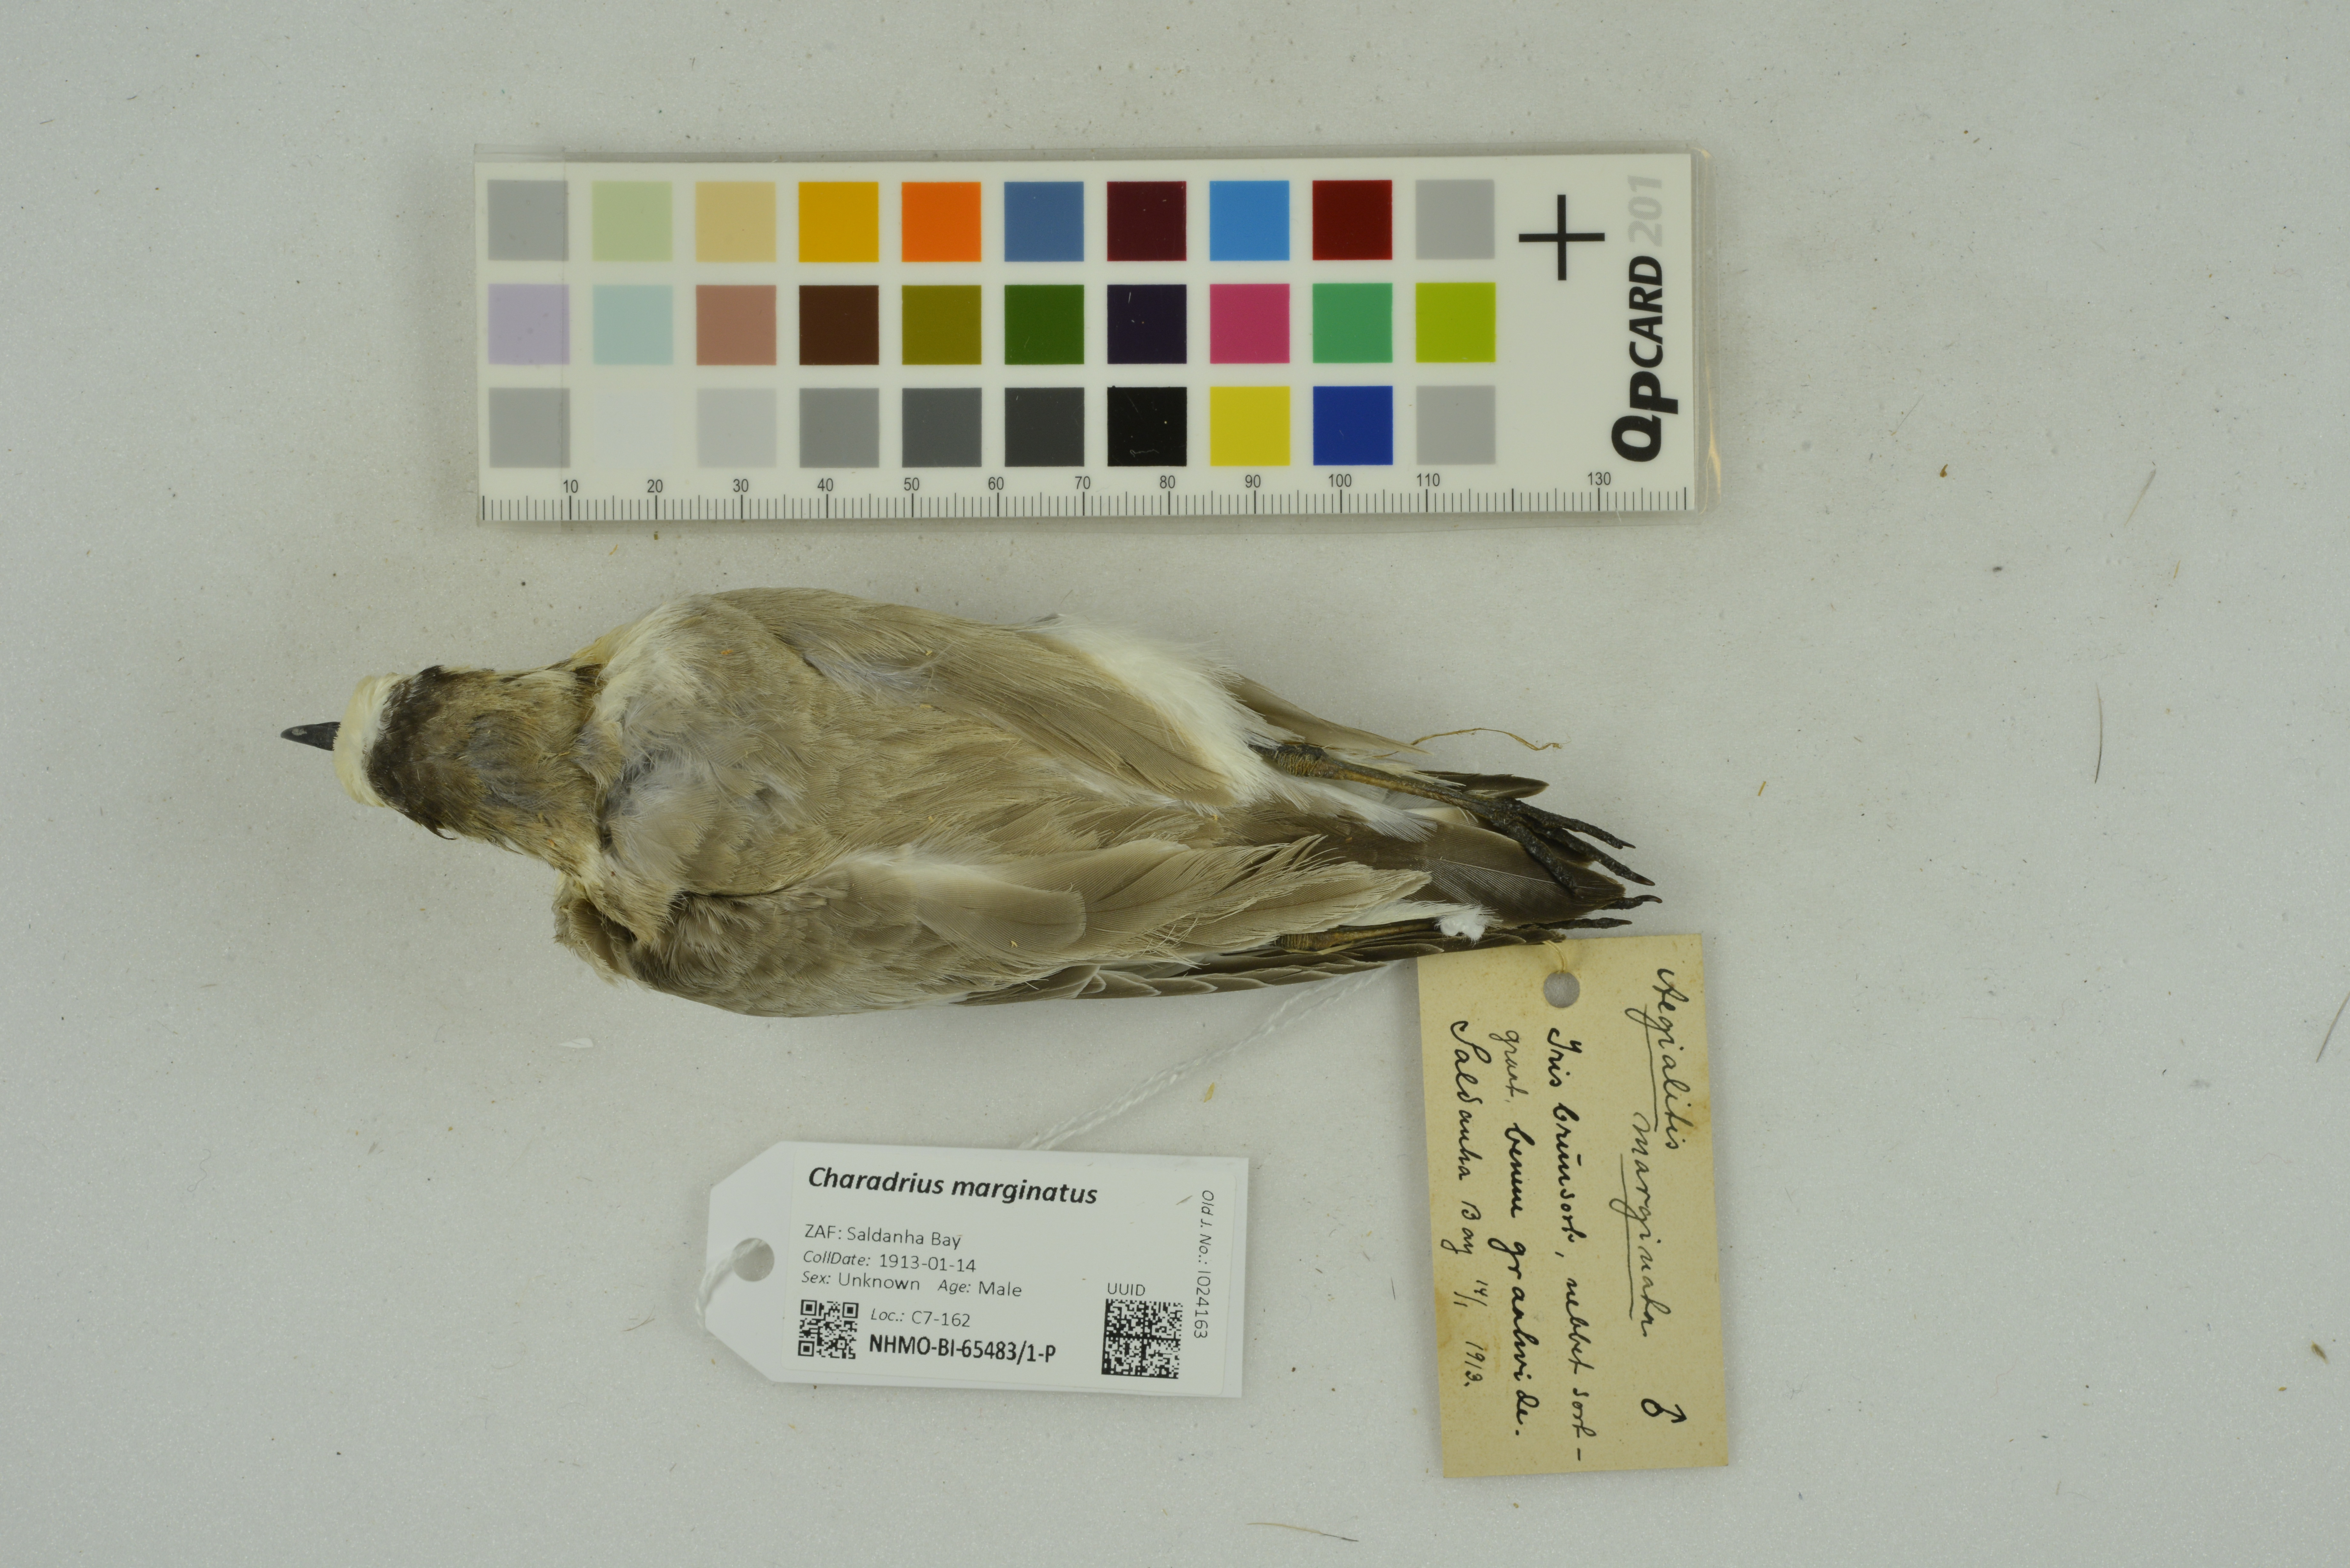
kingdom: Animalia
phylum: Chordata
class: Aves
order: Charadriiformes
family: Charadriidae
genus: Charadrius
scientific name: Charadrius marginatus
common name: White-fronted plover
